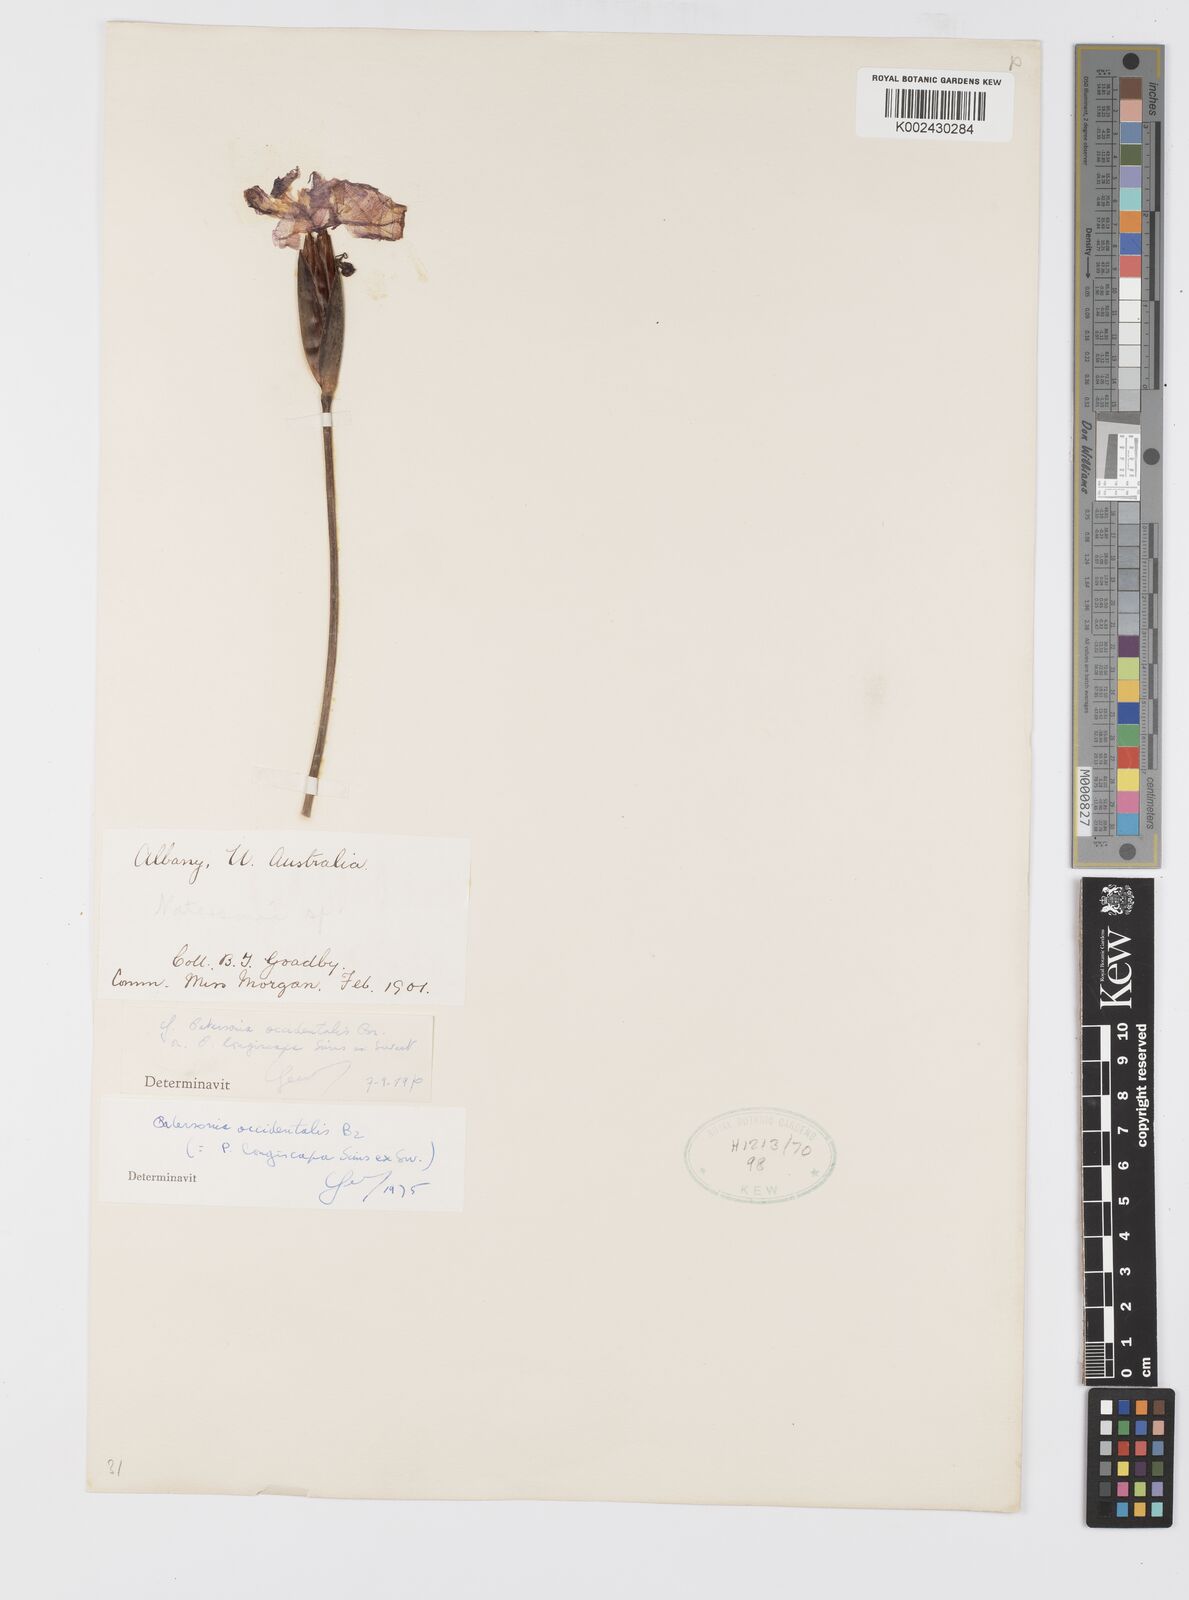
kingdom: Plantae
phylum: Tracheophyta
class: Liliopsida
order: Asparagales
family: Iridaceae
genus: Patersonia
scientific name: Patersonia
